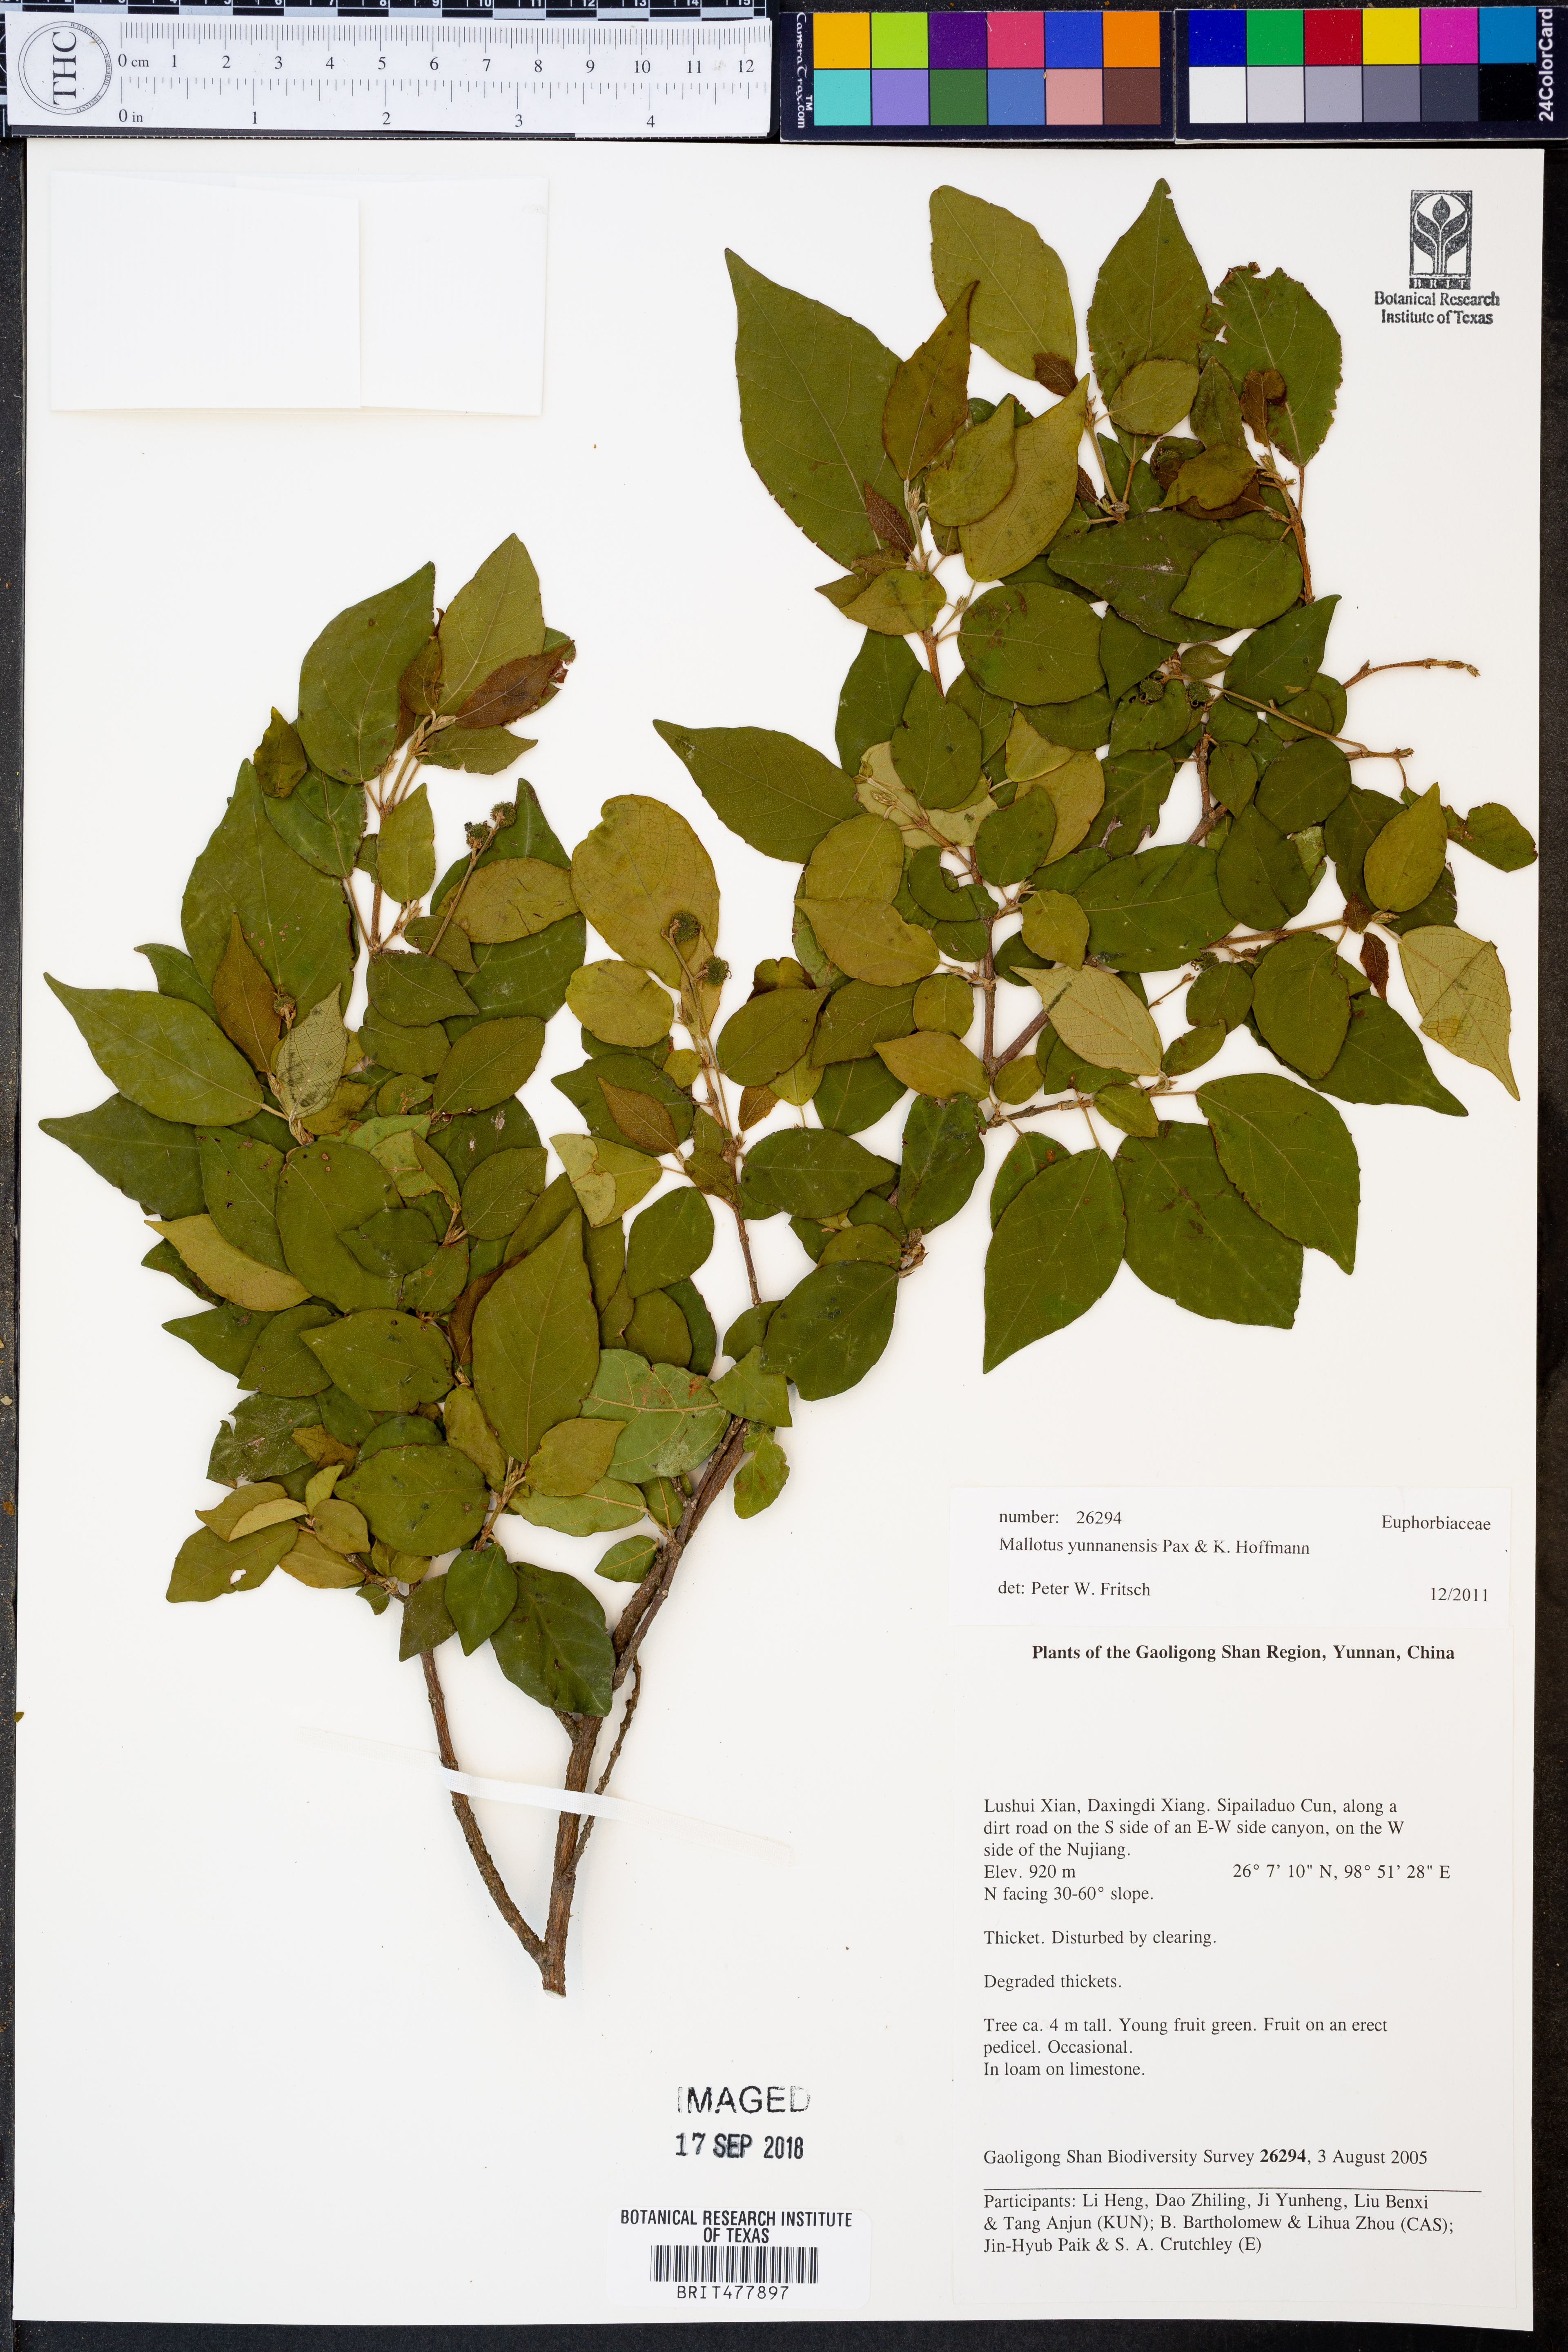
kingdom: Plantae
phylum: Tracheophyta
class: Magnoliopsida
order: Malpighiales
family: Euphorbiaceae
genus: Mallotus
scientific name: Mallotus yunnanensis
